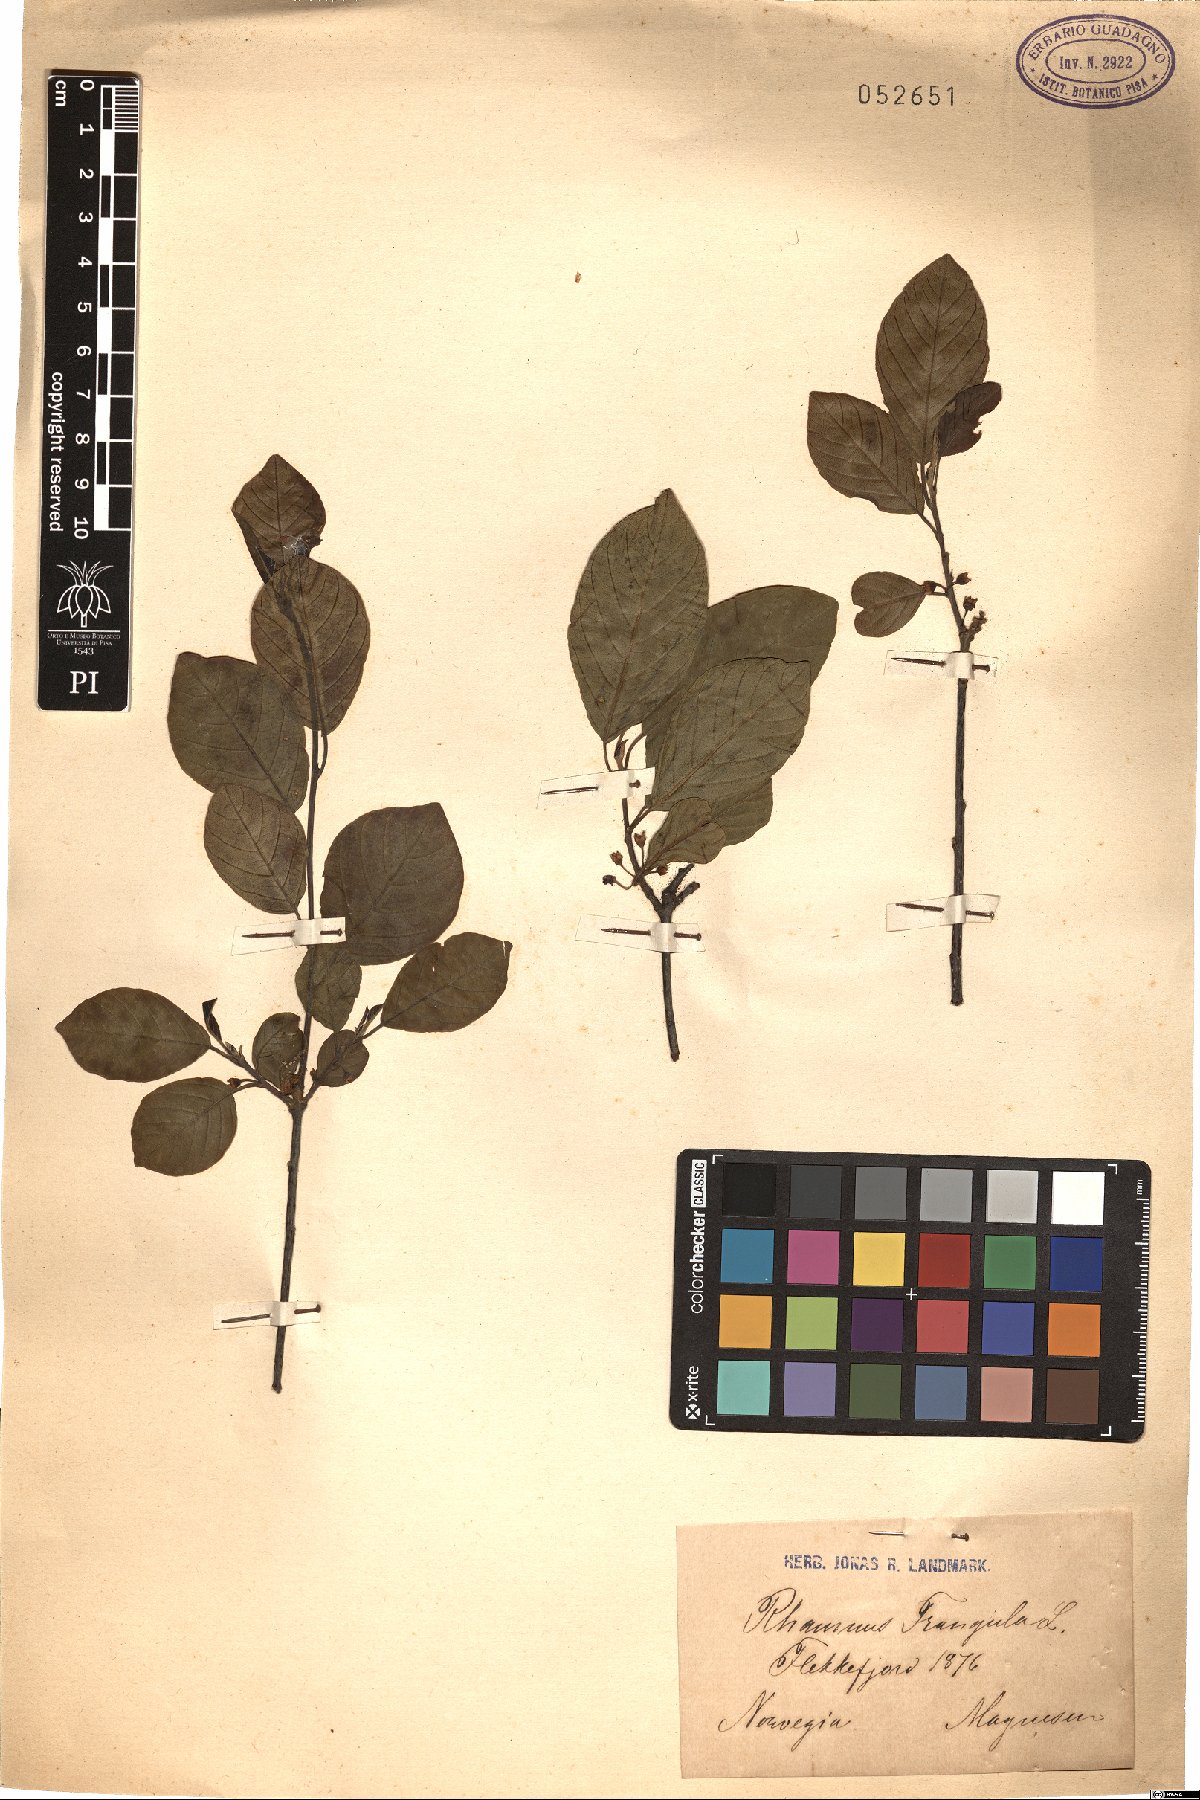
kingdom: Plantae
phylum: Tracheophyta
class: Magnoliopsida
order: Rosales
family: Rhamnaceae
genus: Frangula
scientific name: Frangula alnus
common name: Alder buckthorn
